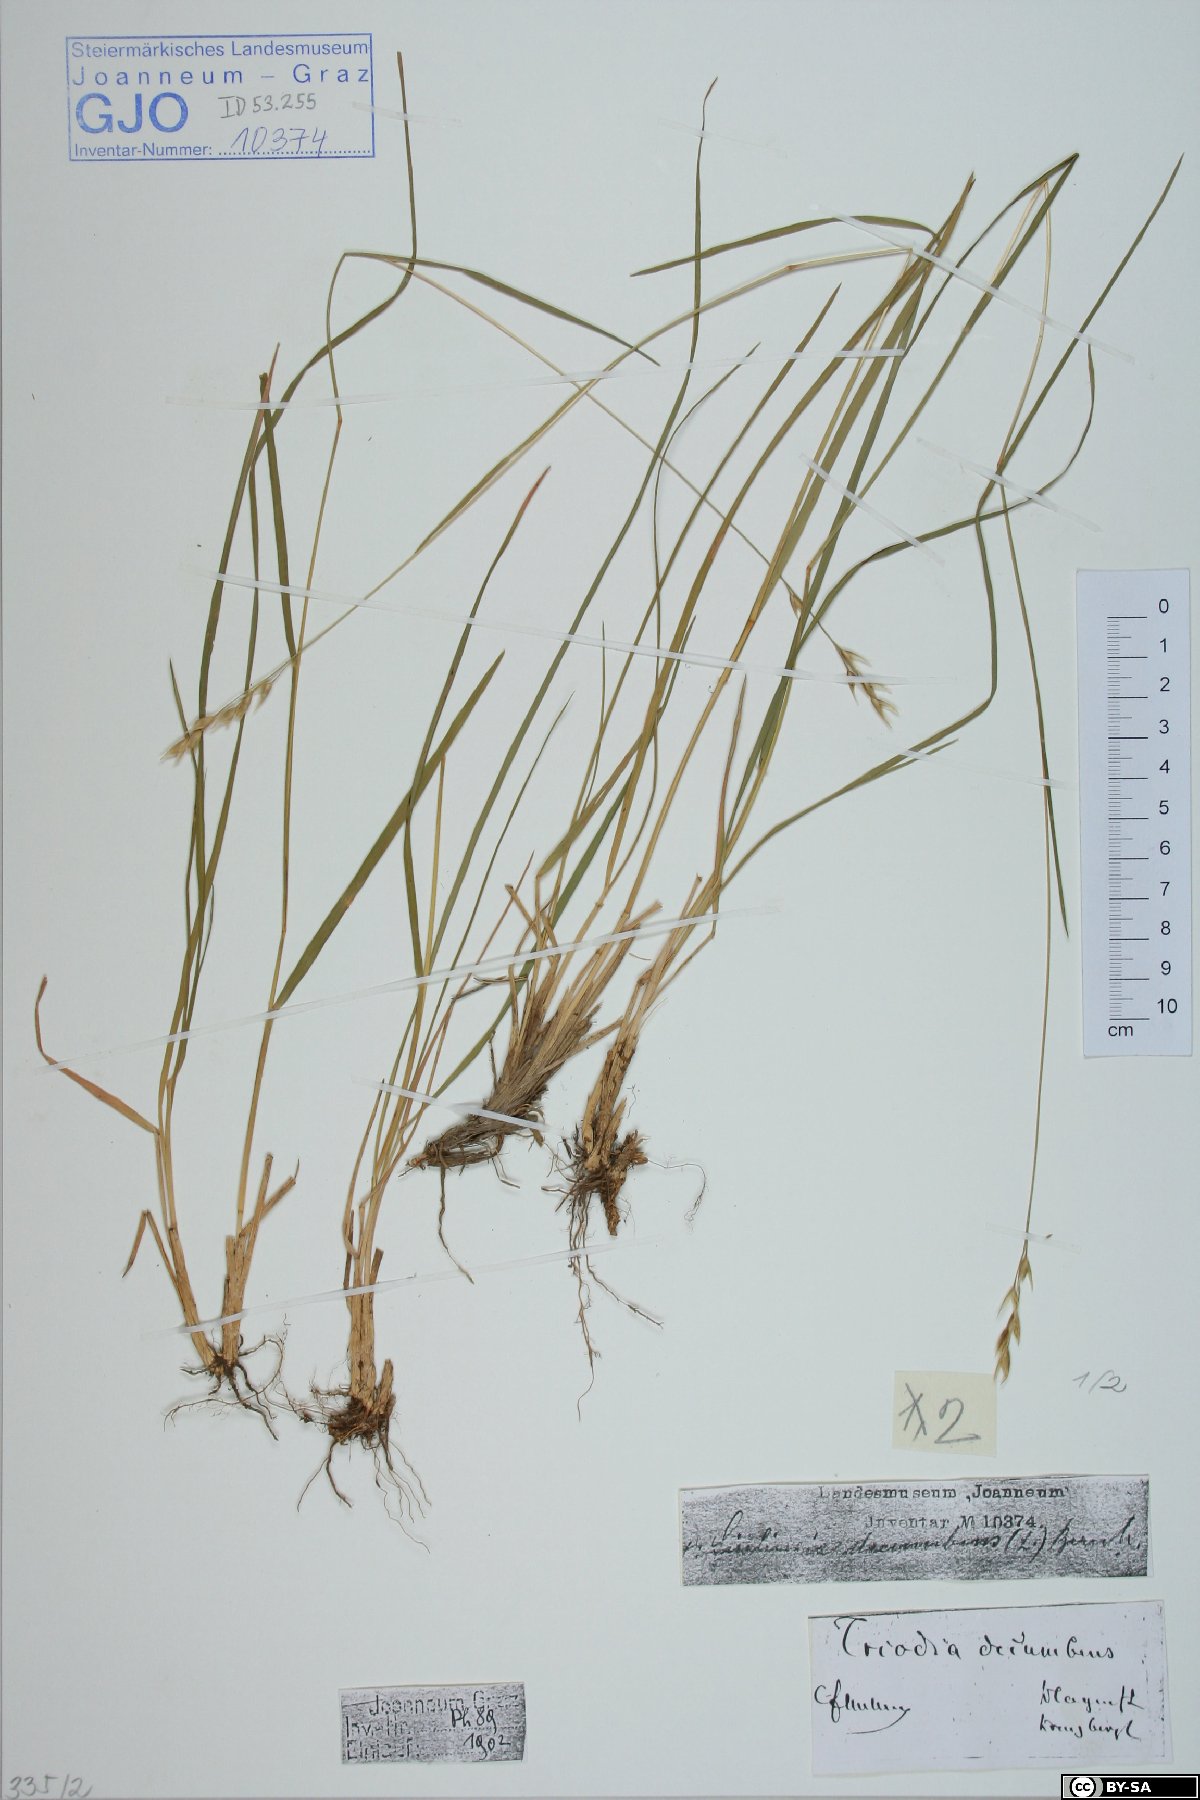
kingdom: Plantae
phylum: Tracheophyta
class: Liliopsida
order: Poales
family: Poaceae
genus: Danthonia
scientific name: Danthonia decumbens
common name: Common heathgrass
